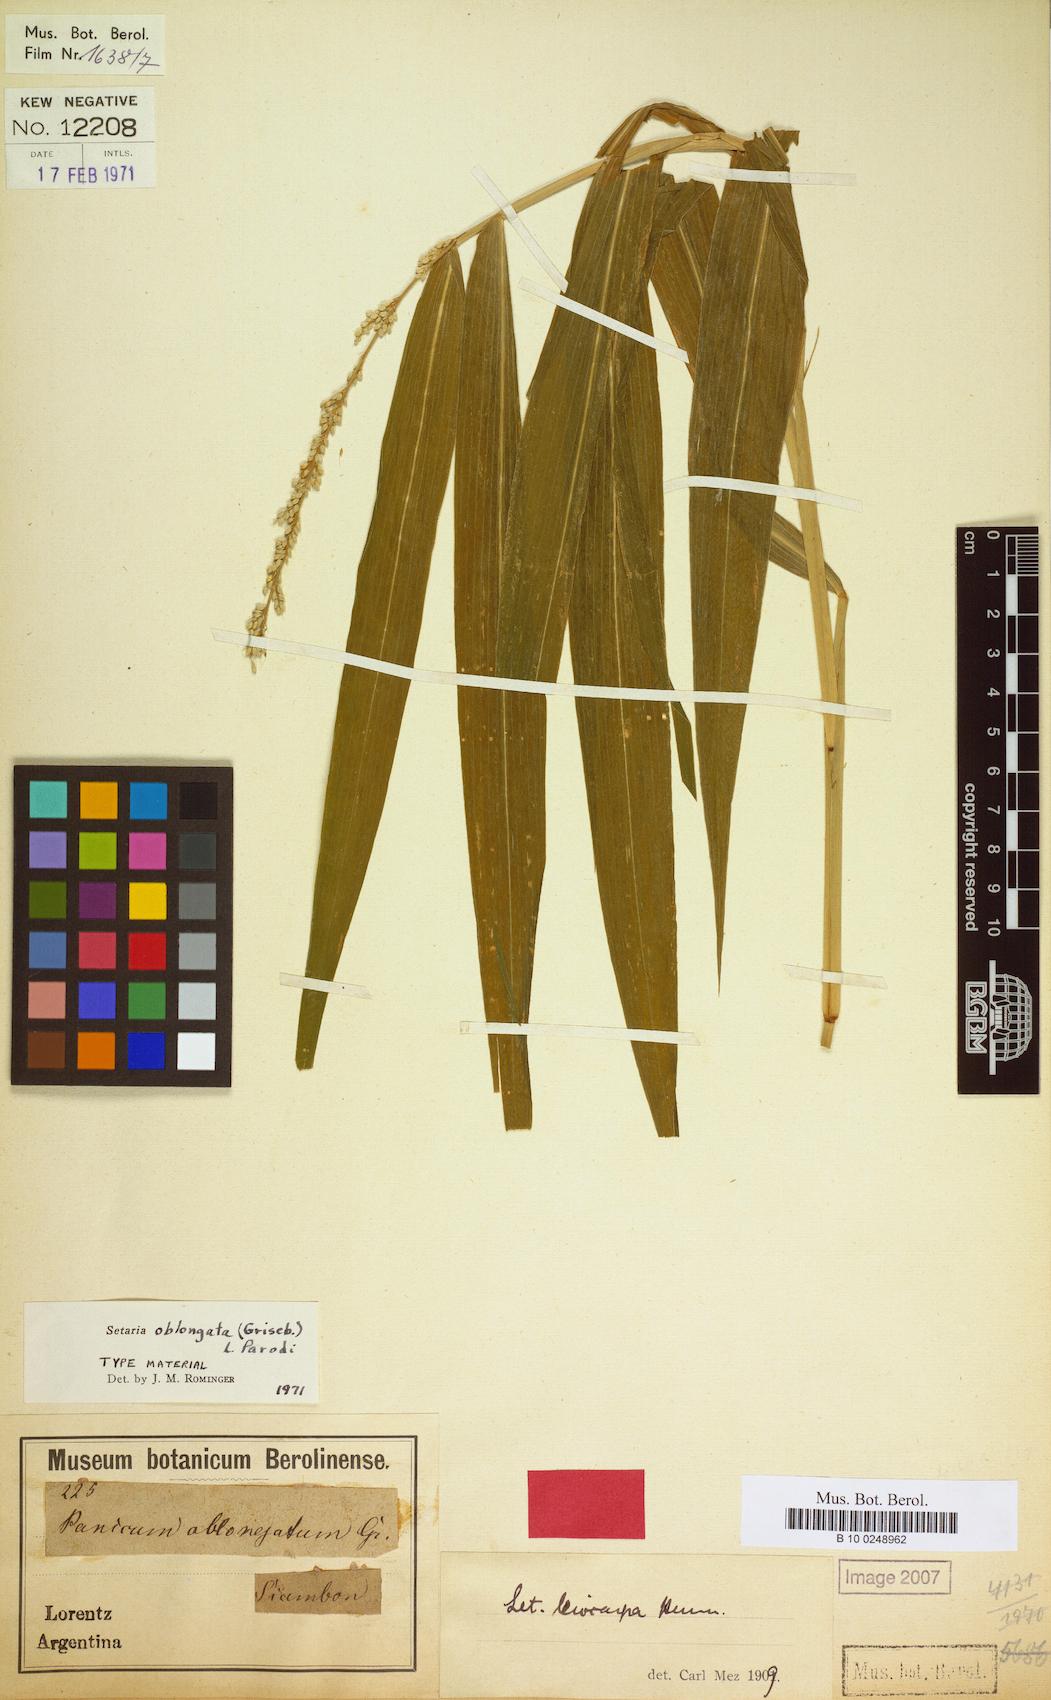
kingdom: Plantae
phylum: Tracheophyta
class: Liliopsida
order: Poales
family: Poaceae
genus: Setaria
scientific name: Setaria oblongata
